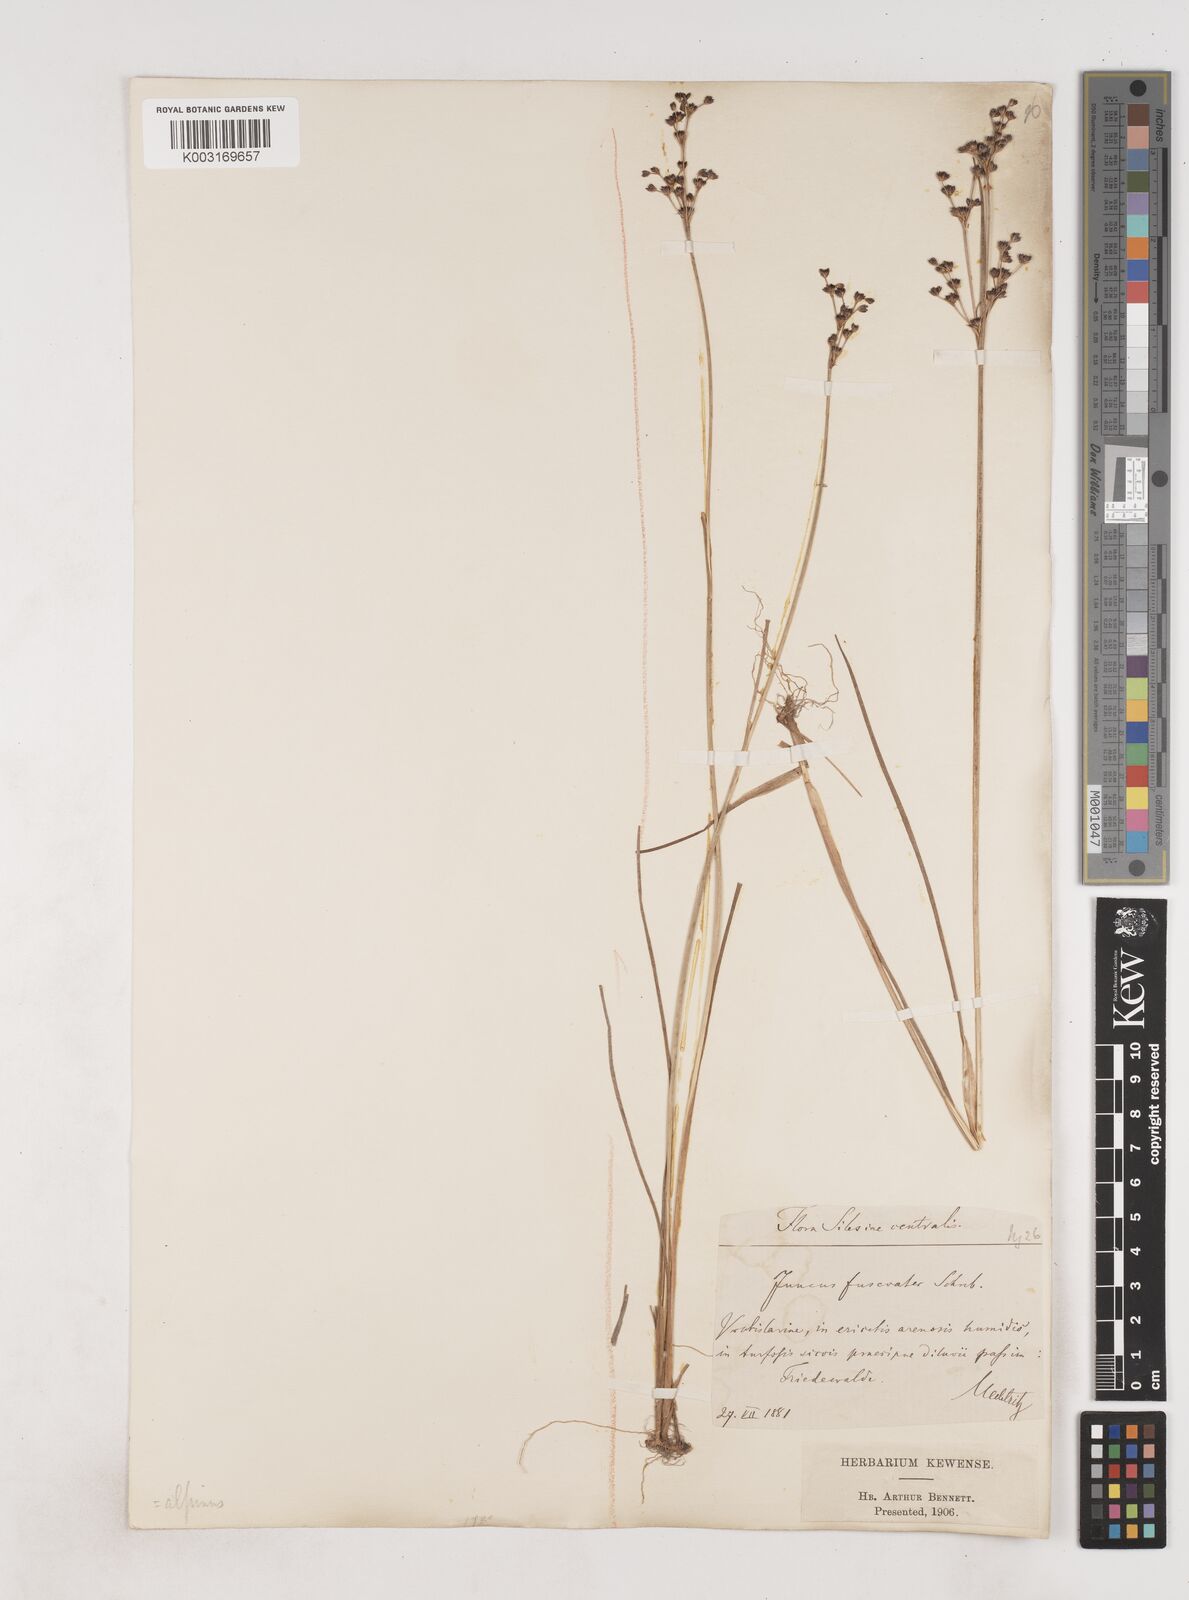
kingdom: Plantae
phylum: Tracheophyta
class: Liliopsida
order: Poales
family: Juncaceae
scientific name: Juncaceae
